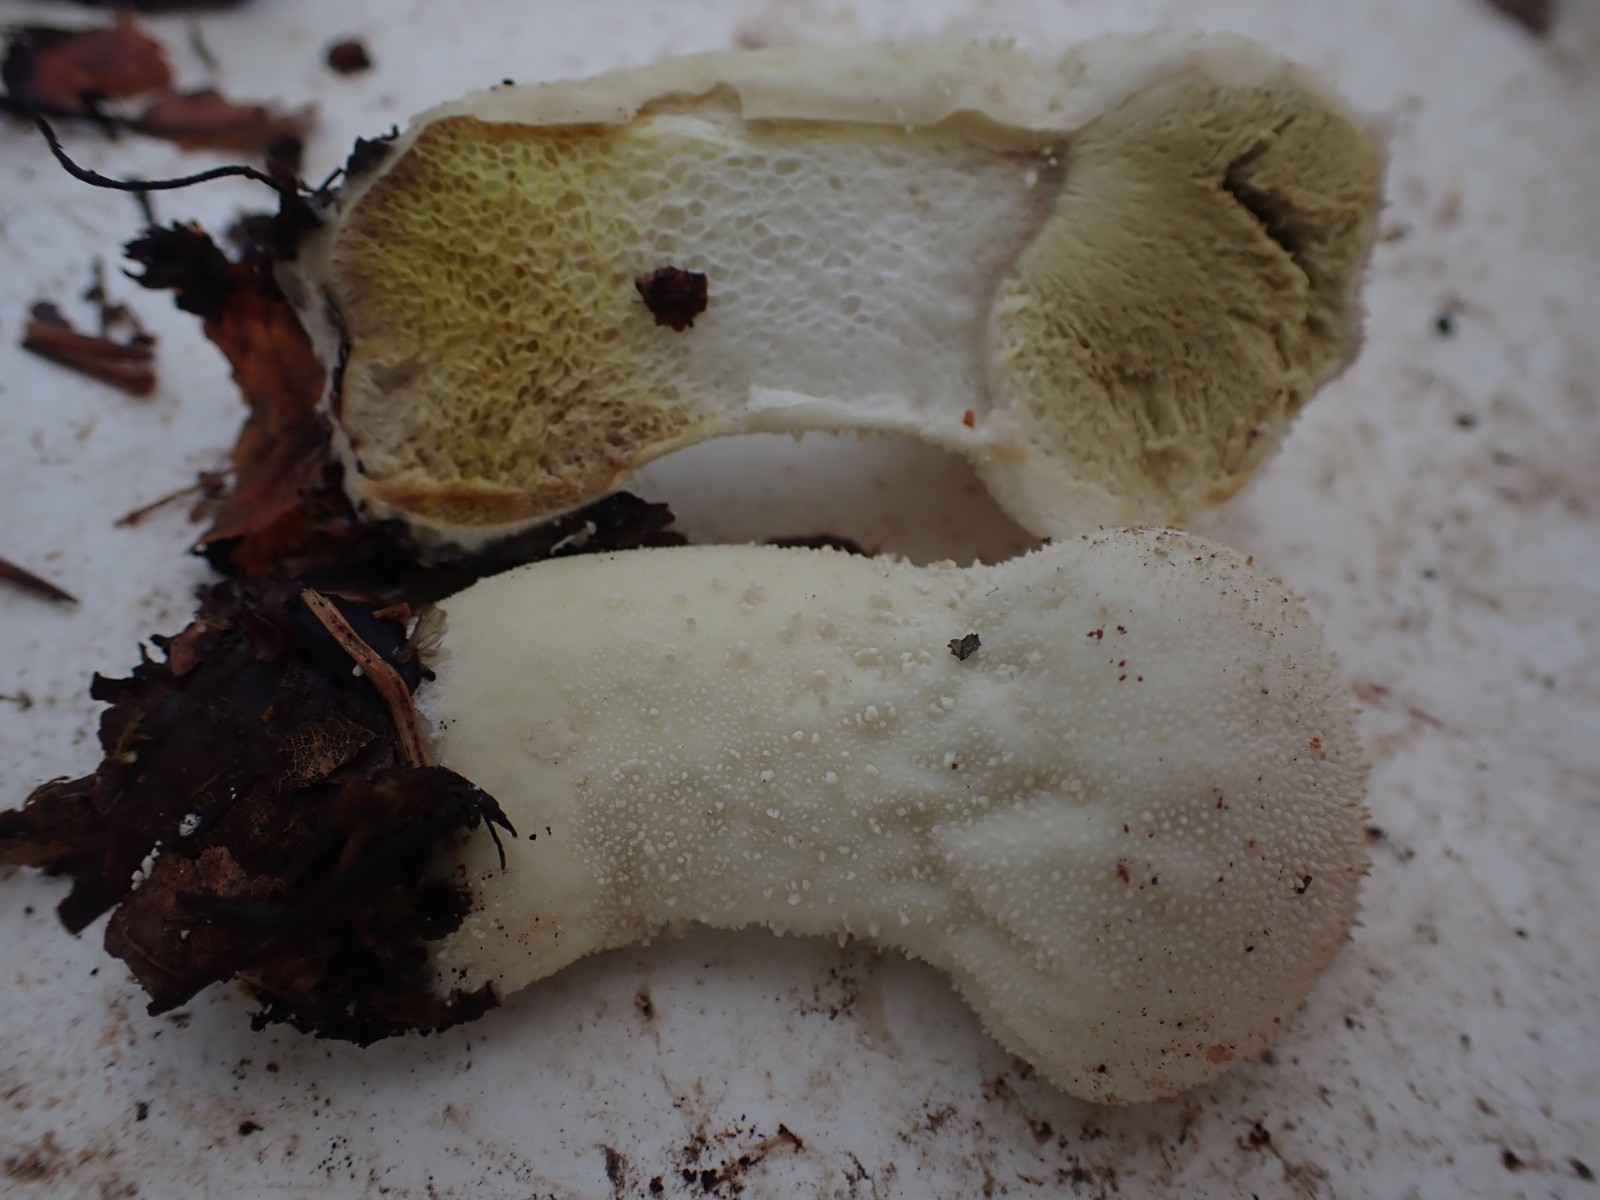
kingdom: Fungi
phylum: Basidiomycota
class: Agaricomycetes
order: Agaricales
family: Lycoperdaceae
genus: Lycoperdon
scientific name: Lycoperdon excipuliforme
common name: højstokket støvbold
